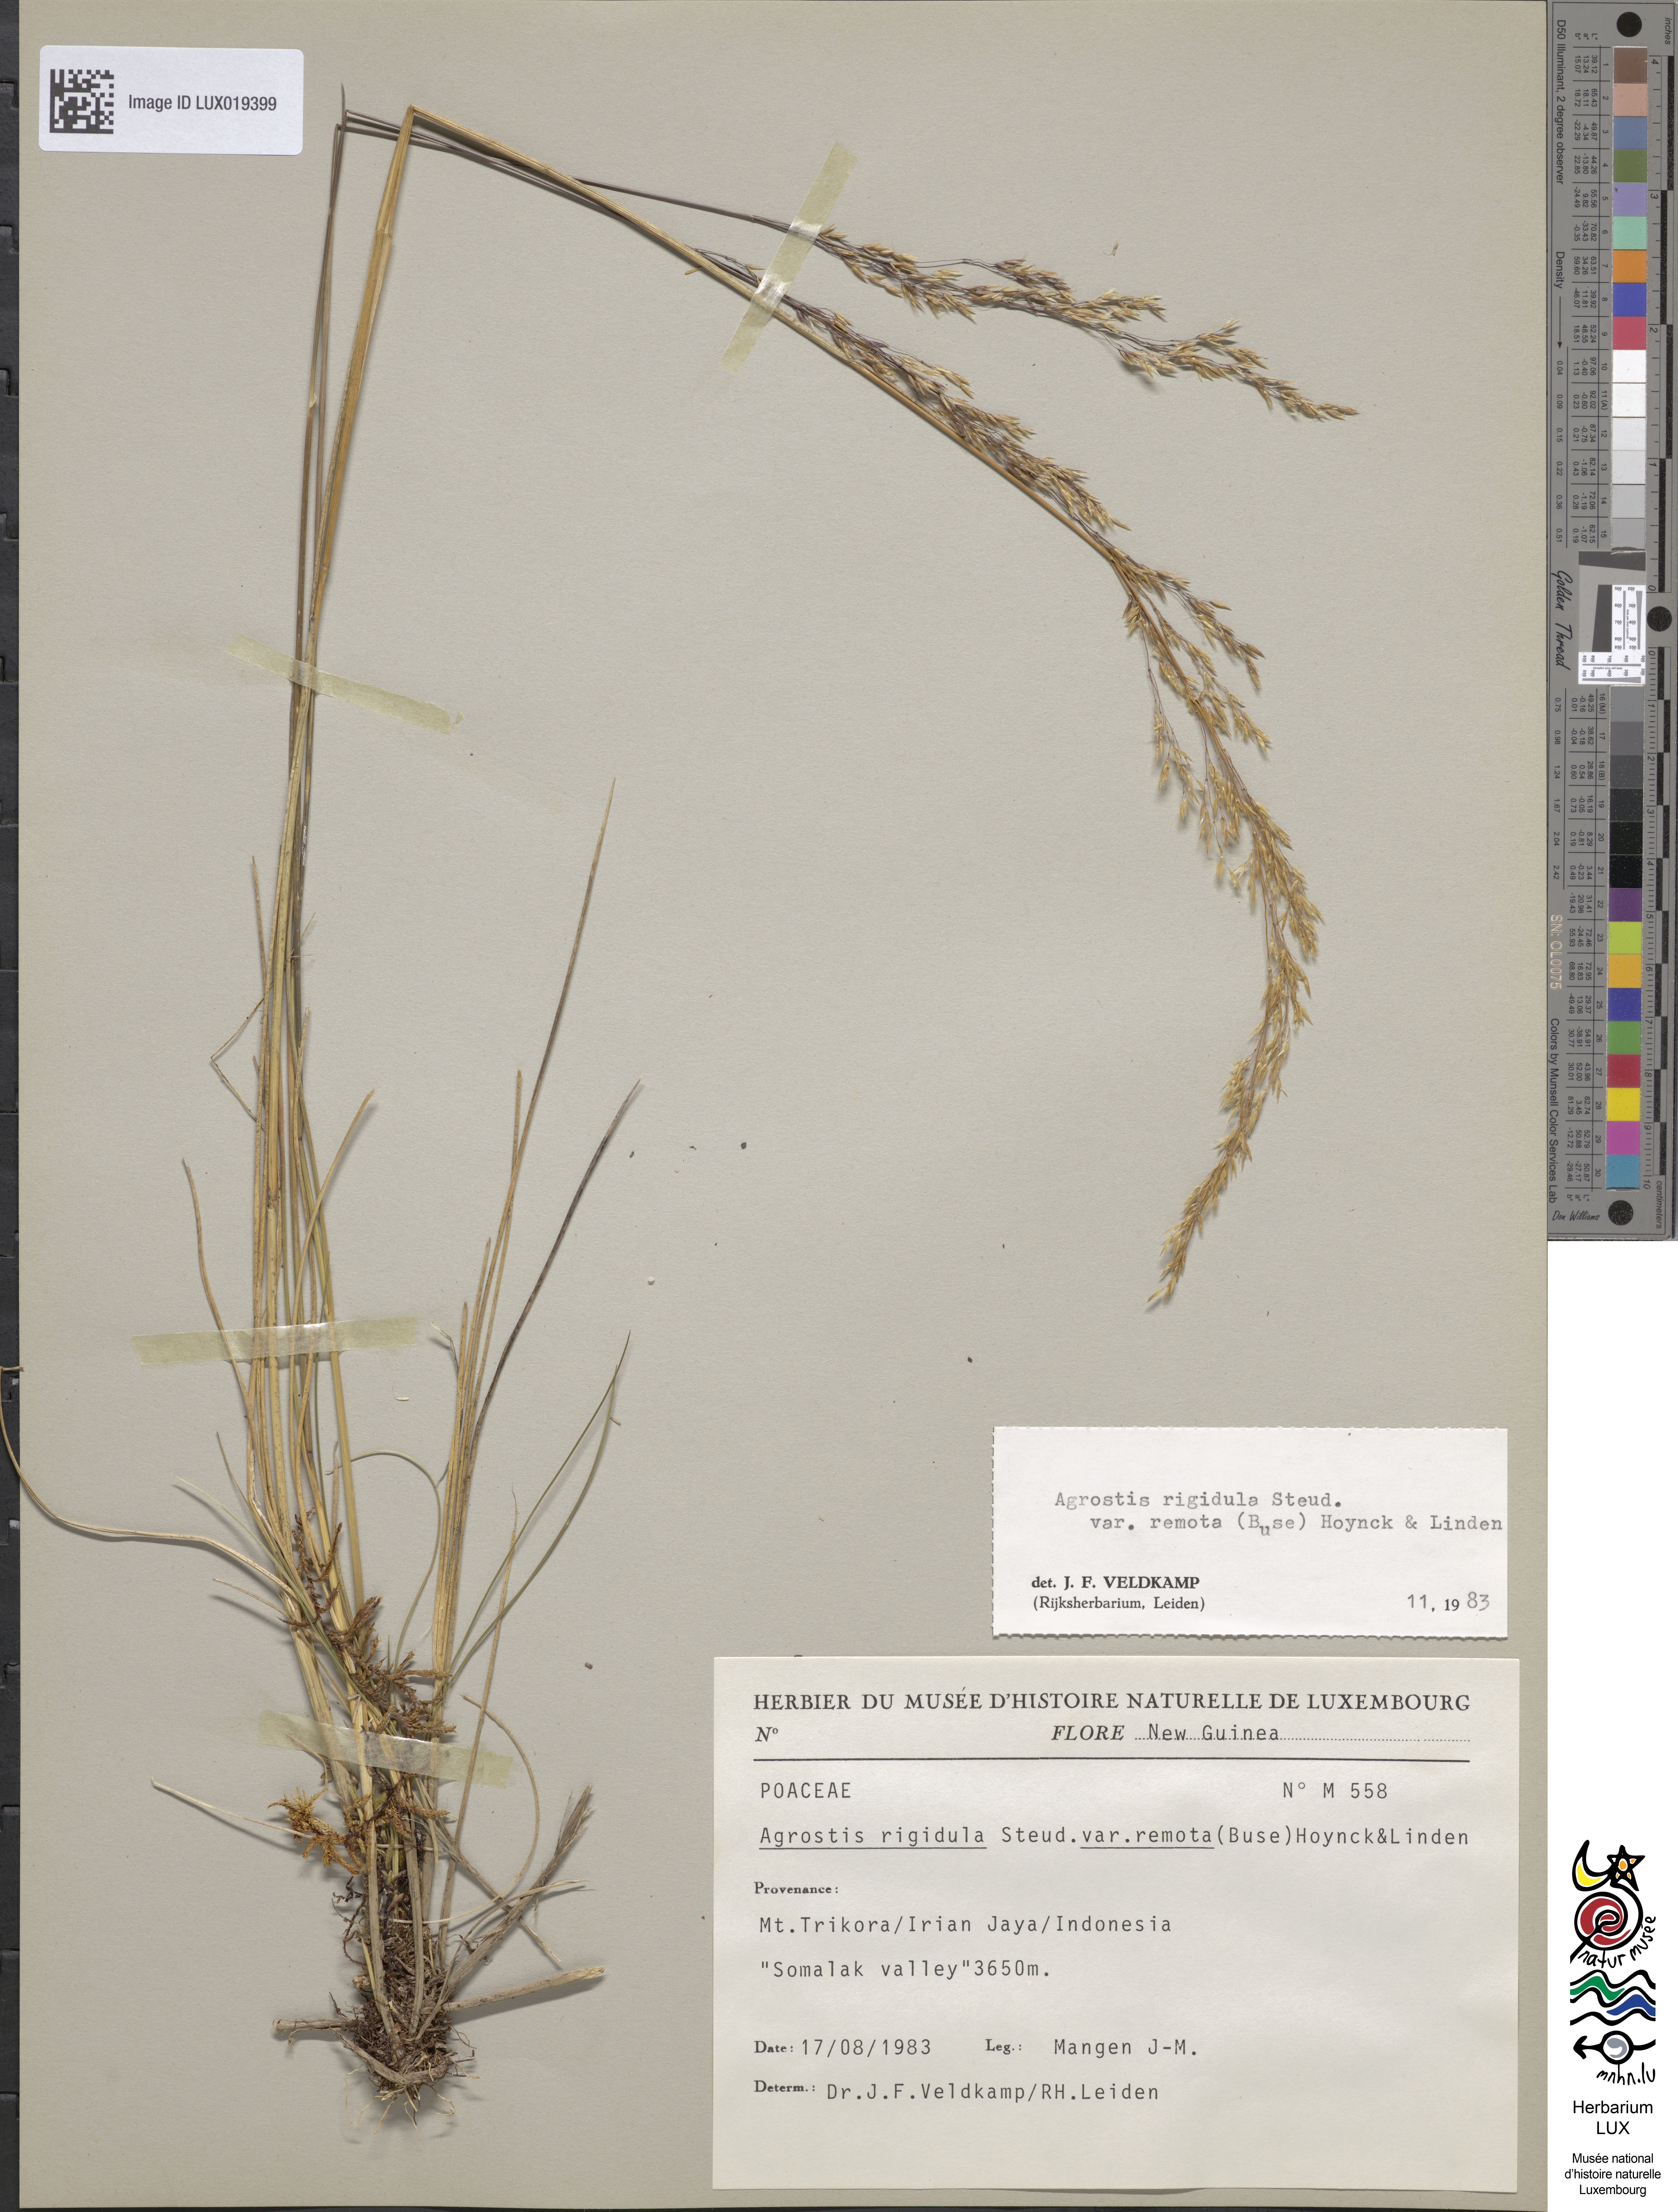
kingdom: Plantae
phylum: Tracheophyta
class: Liliopsida
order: Poales
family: Poaceae
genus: Agrostis
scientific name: Agrostis infirma
